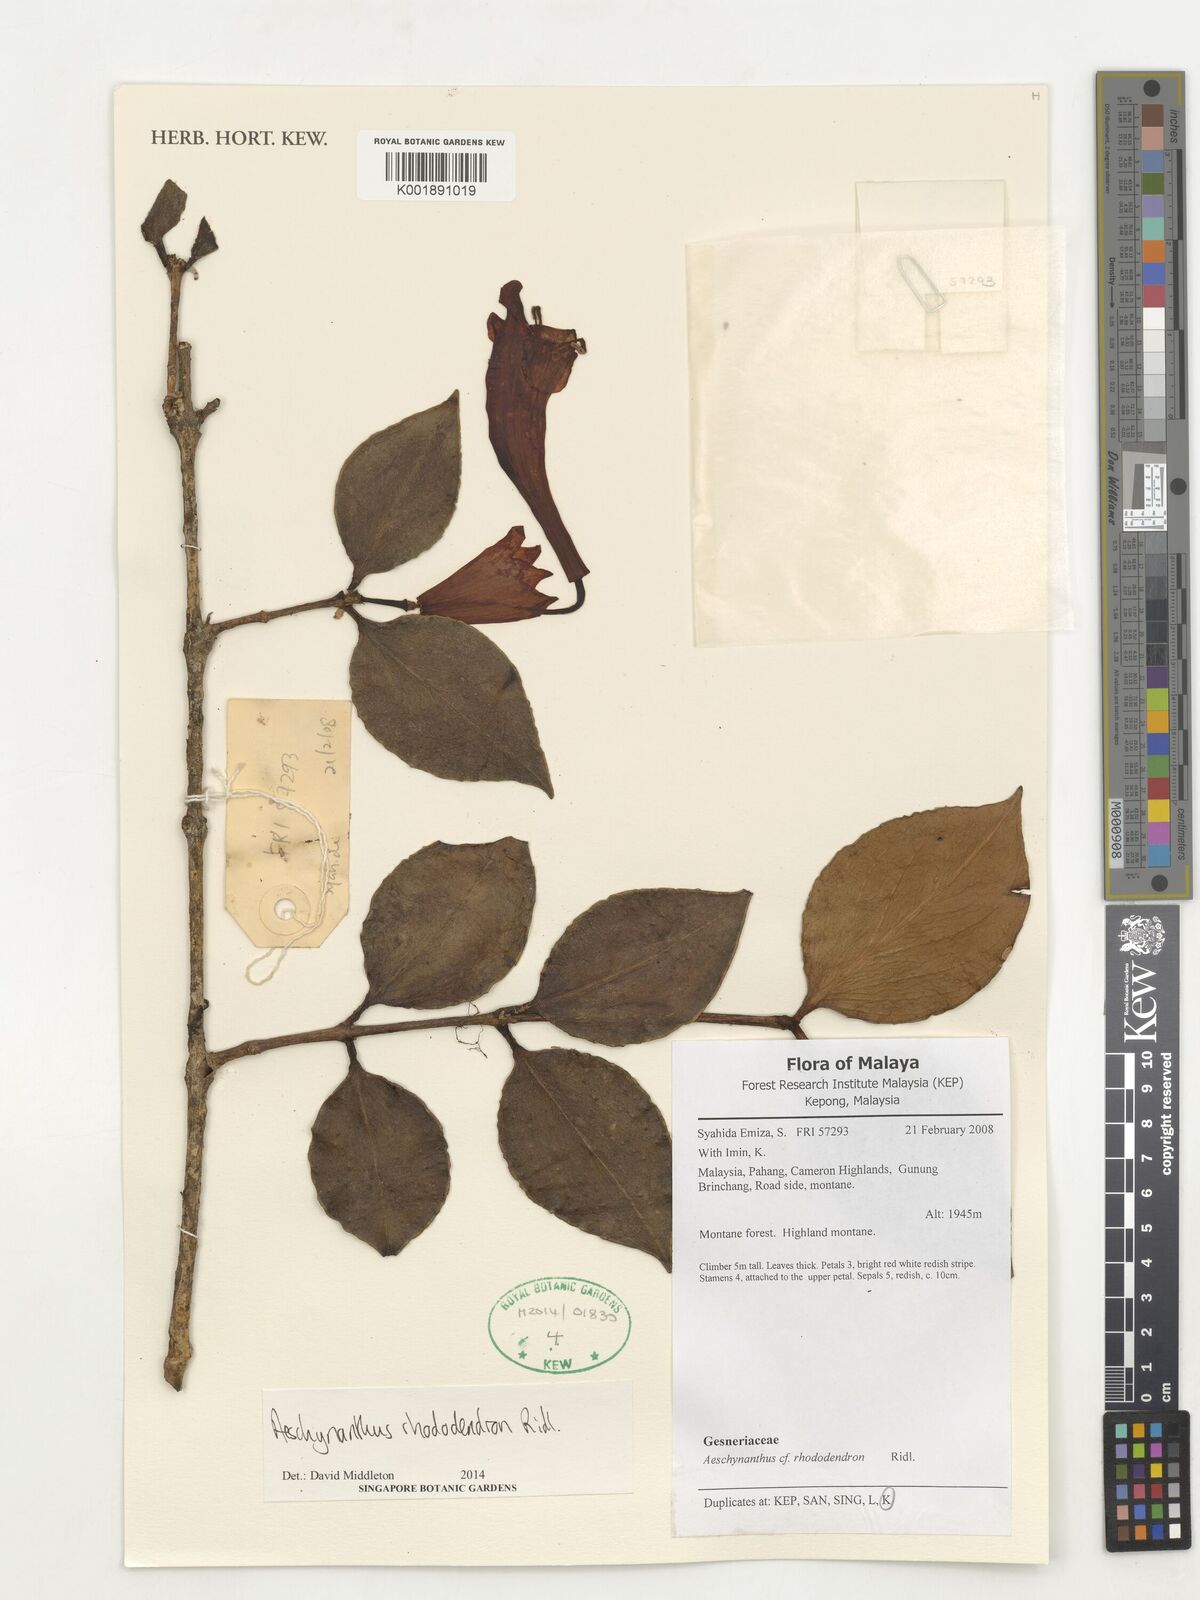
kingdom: Plantae
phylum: Tracheophyta
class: Magnoliopsida
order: Lamiales
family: Gesneriaceae
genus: Aeschynanthus
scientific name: Aeschynanthus rhododendron
